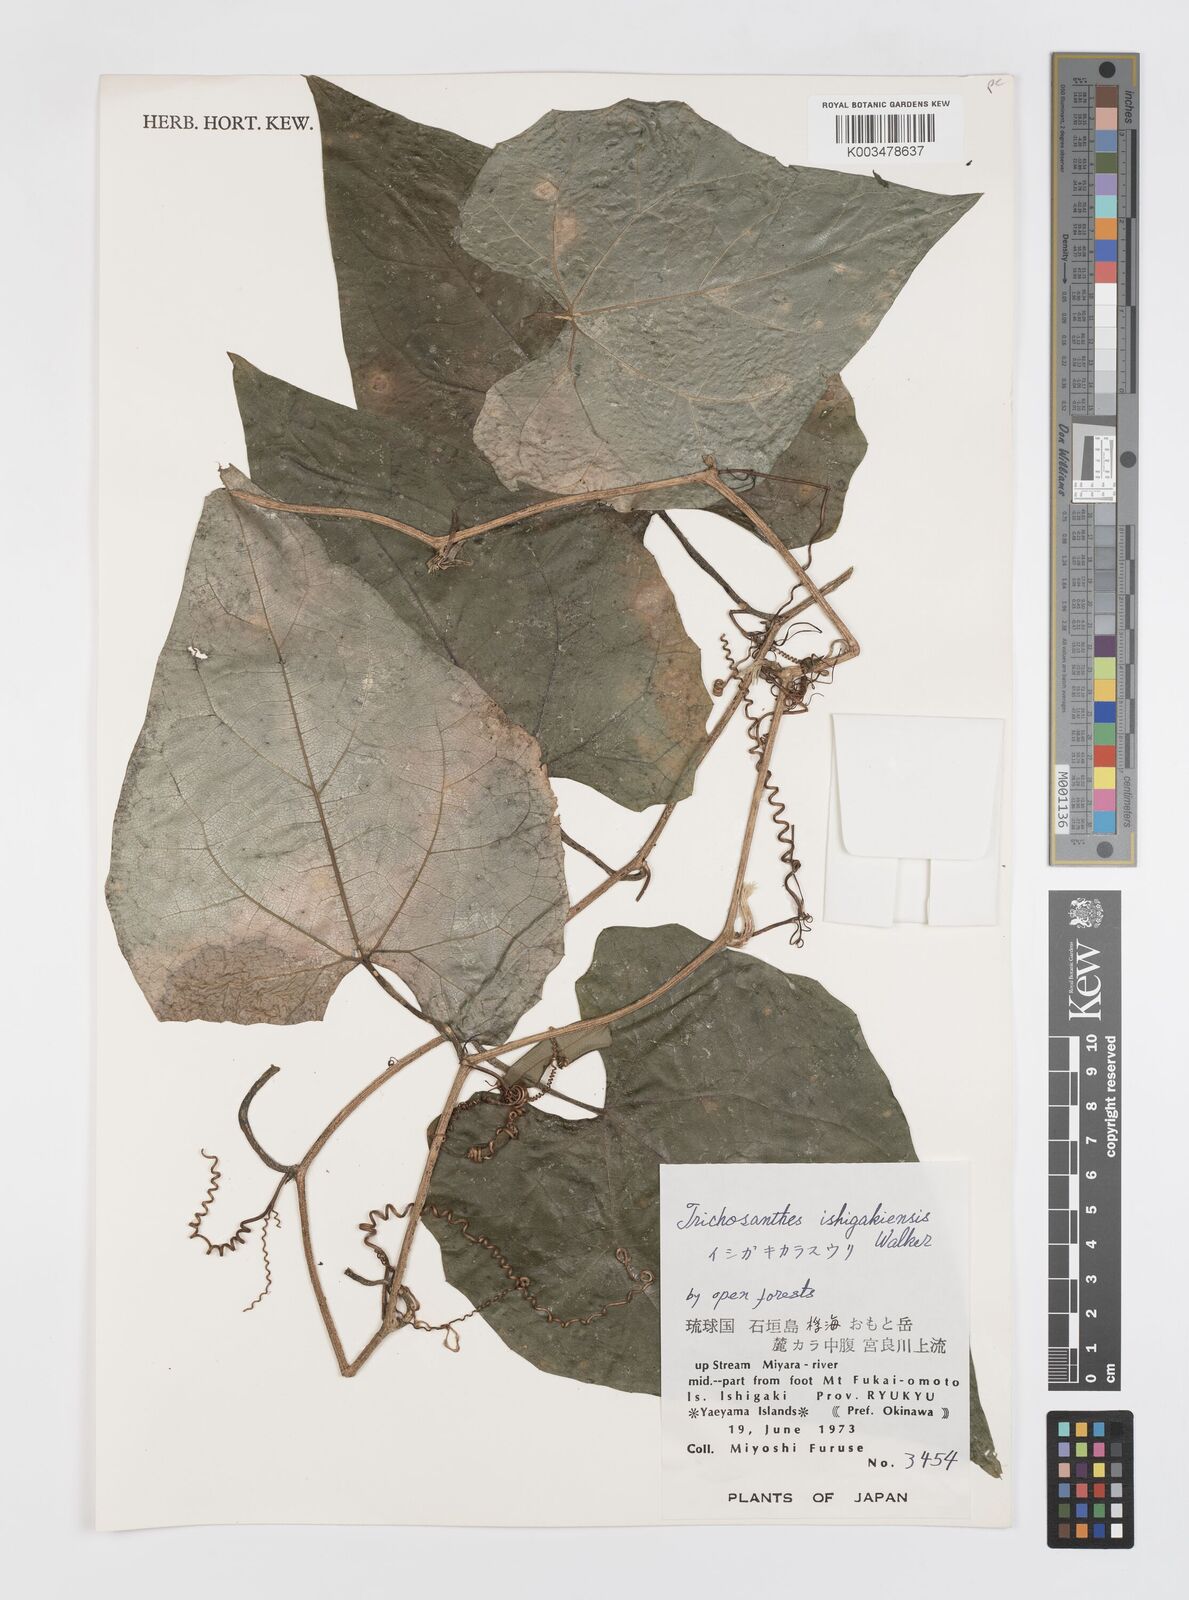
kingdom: Plantae
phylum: Tracheophyta
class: Magnoliopsida
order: Cucurbitales
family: Cucurbitaceae
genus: Trichosanthes
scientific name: Trichosanthes ishigakiensis
